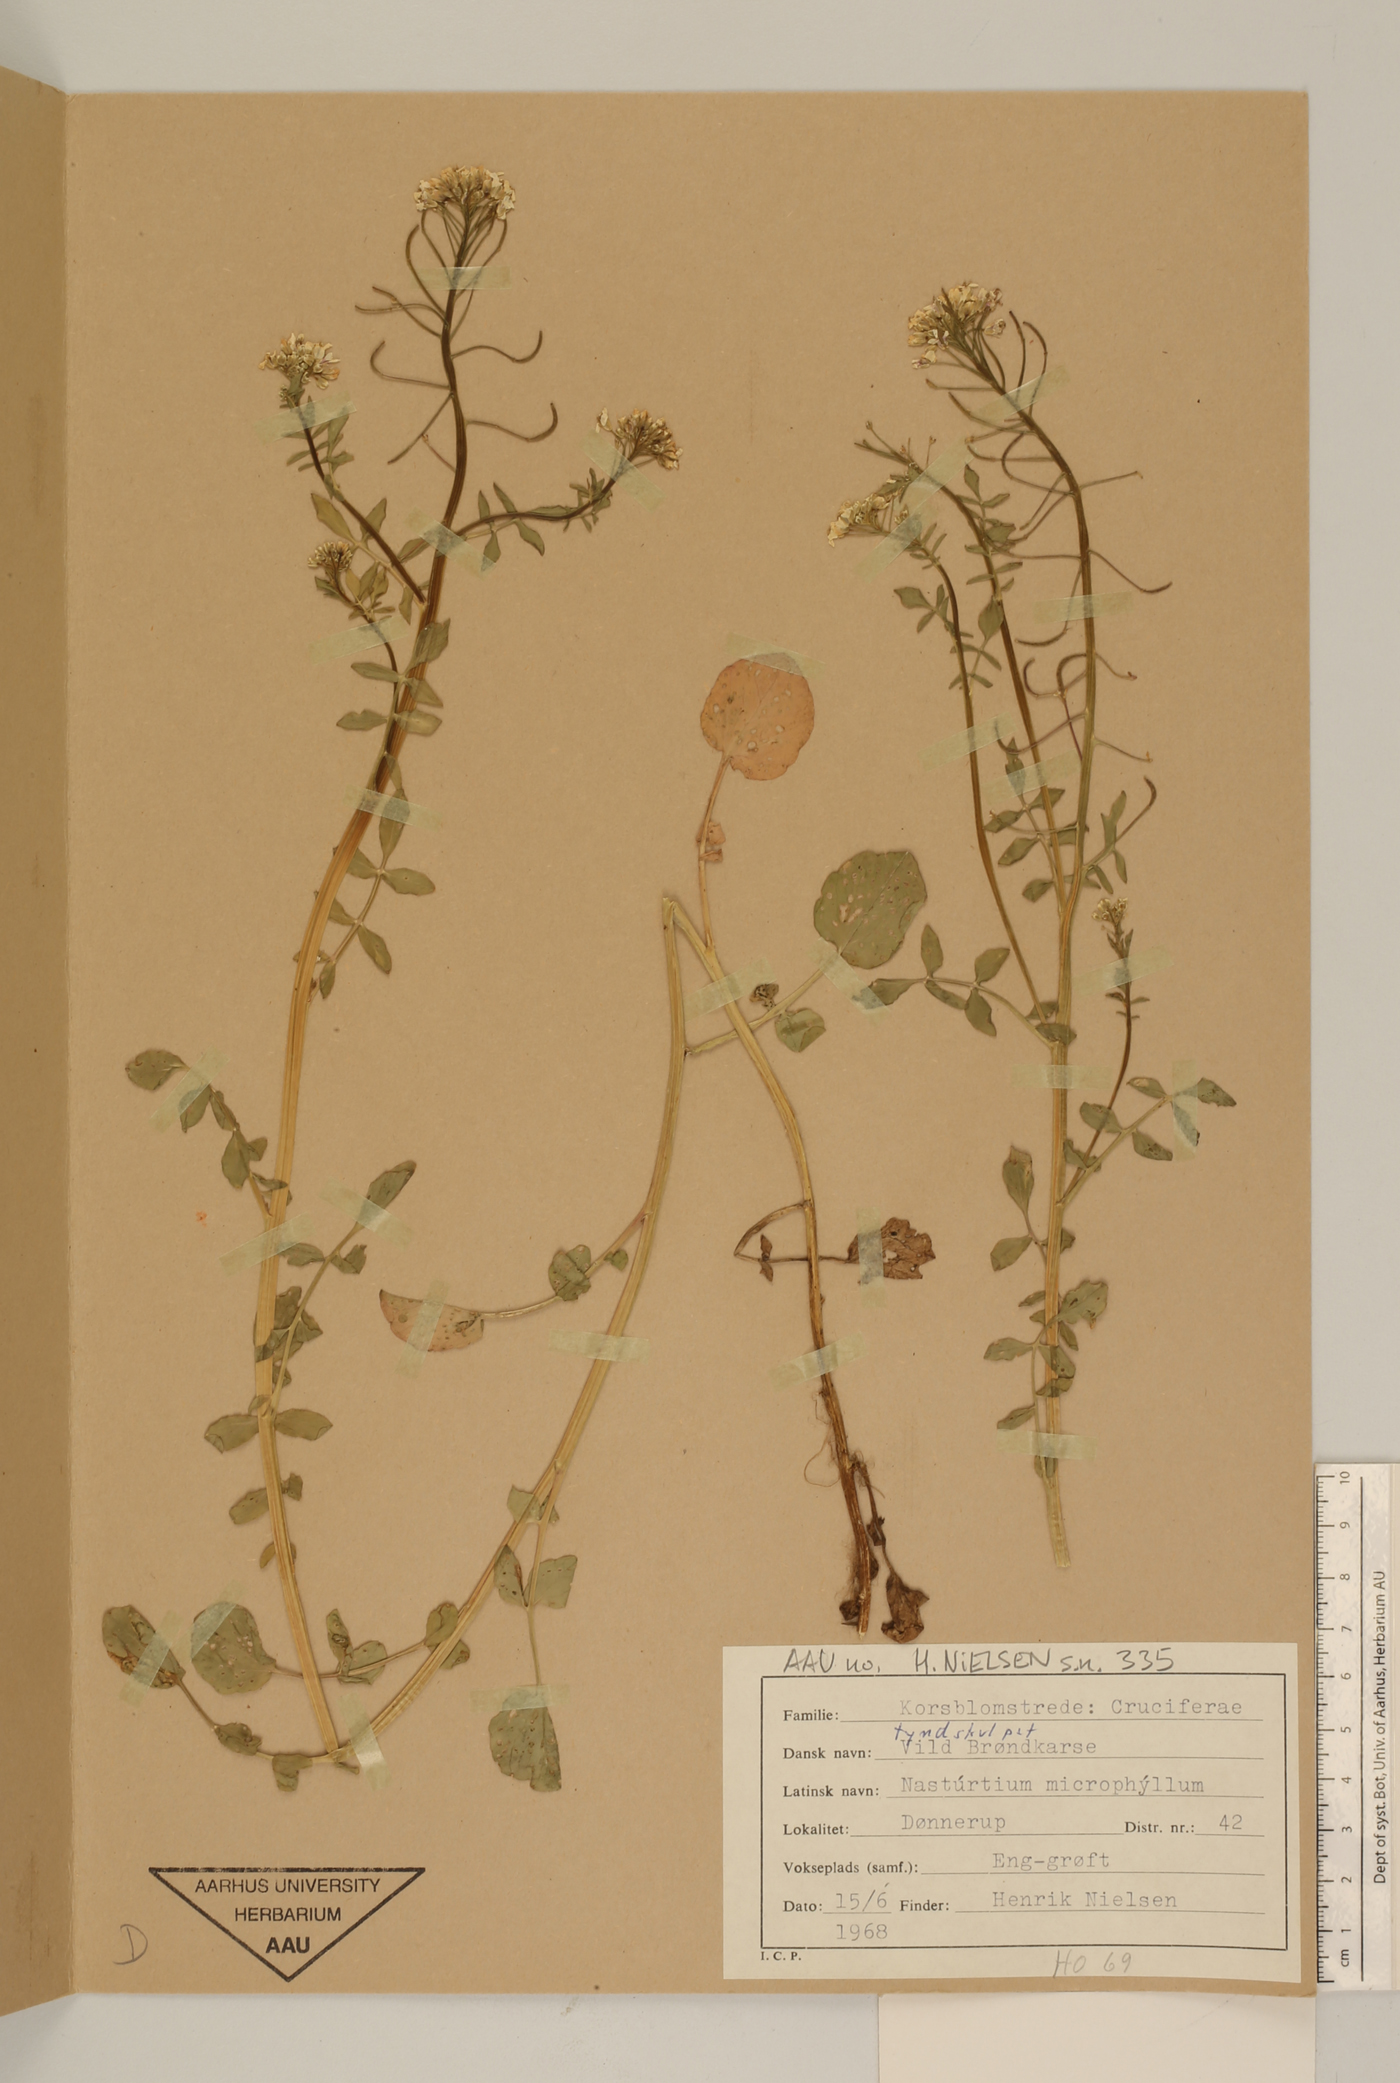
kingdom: Plantae
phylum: Tracheophyta
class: Magnoliopsida
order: Brassicales
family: Brassicaceae
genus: Nasturtium
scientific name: Nasturtium microphyllum
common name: Onerow yellowcress
